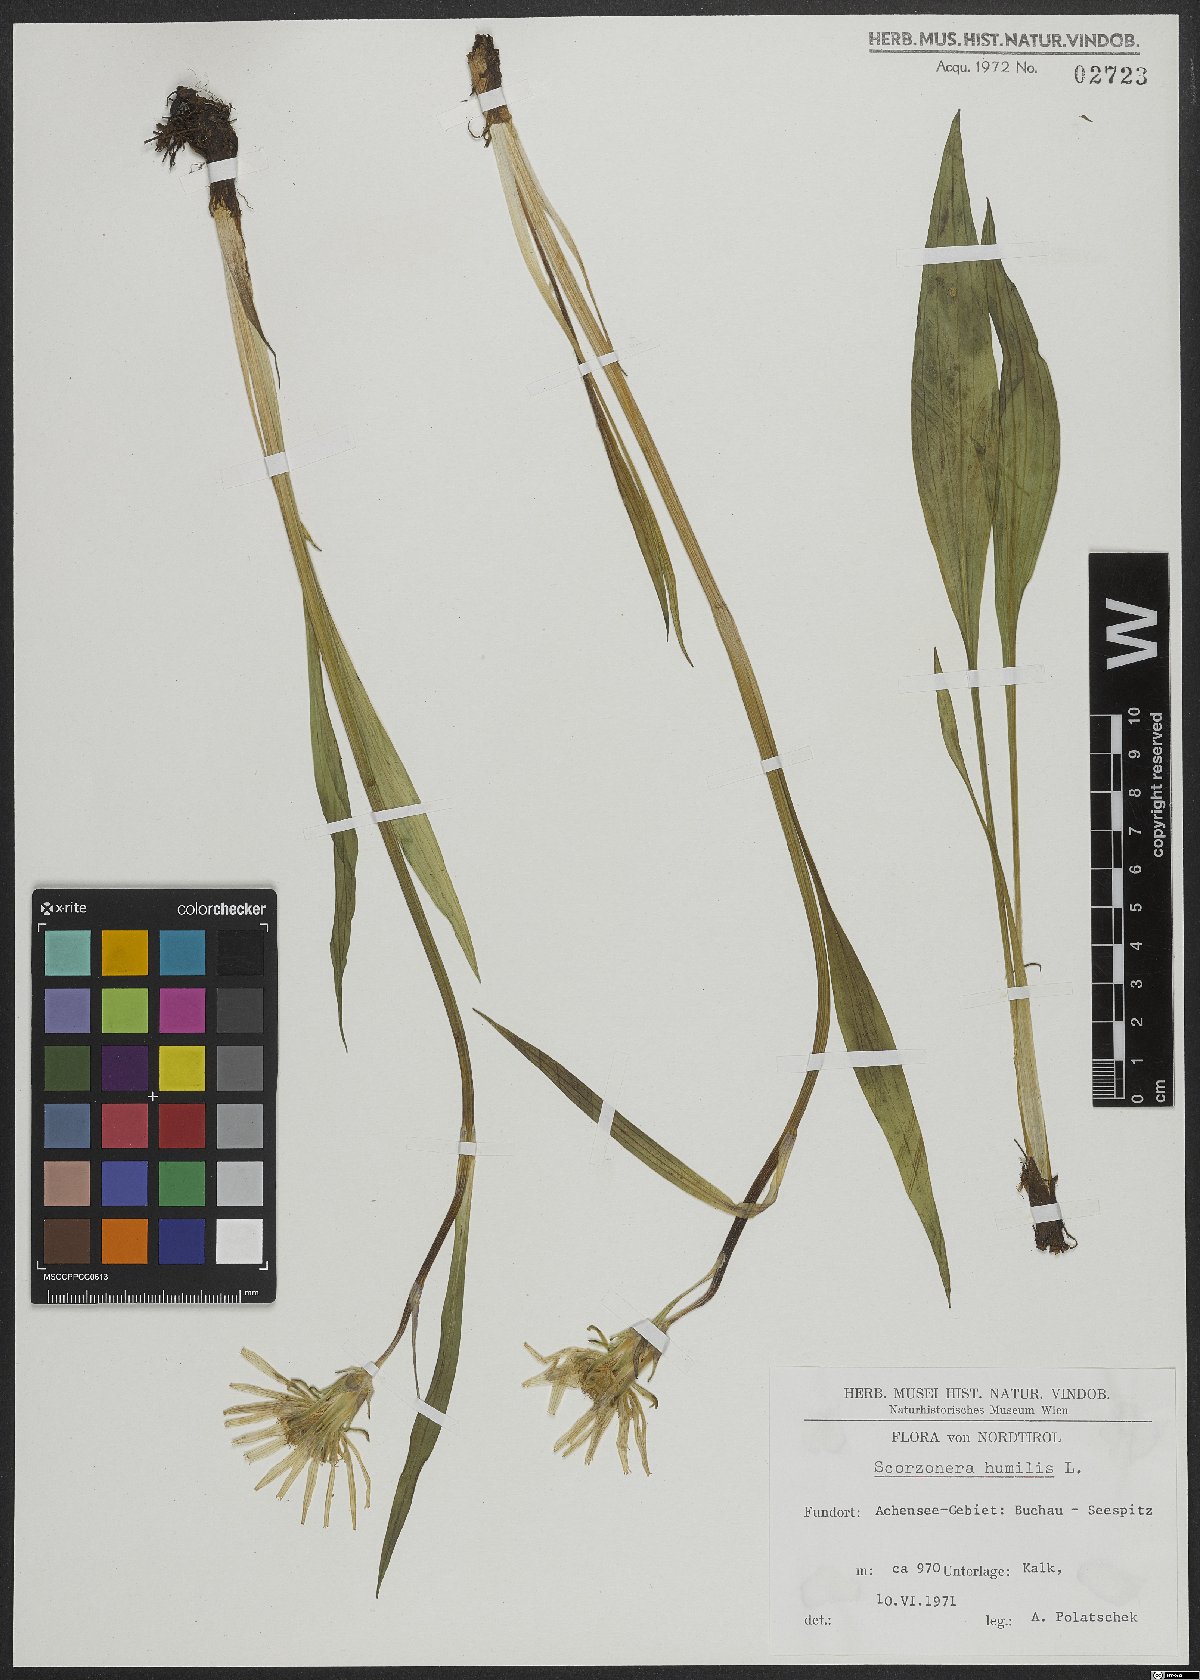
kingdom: Plantae
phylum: Tracheophyta
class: Magnoliopsida
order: Asterales
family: Asteraceae
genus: Scorzonera
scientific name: Scorzonera humilis
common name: Viper's-grass
